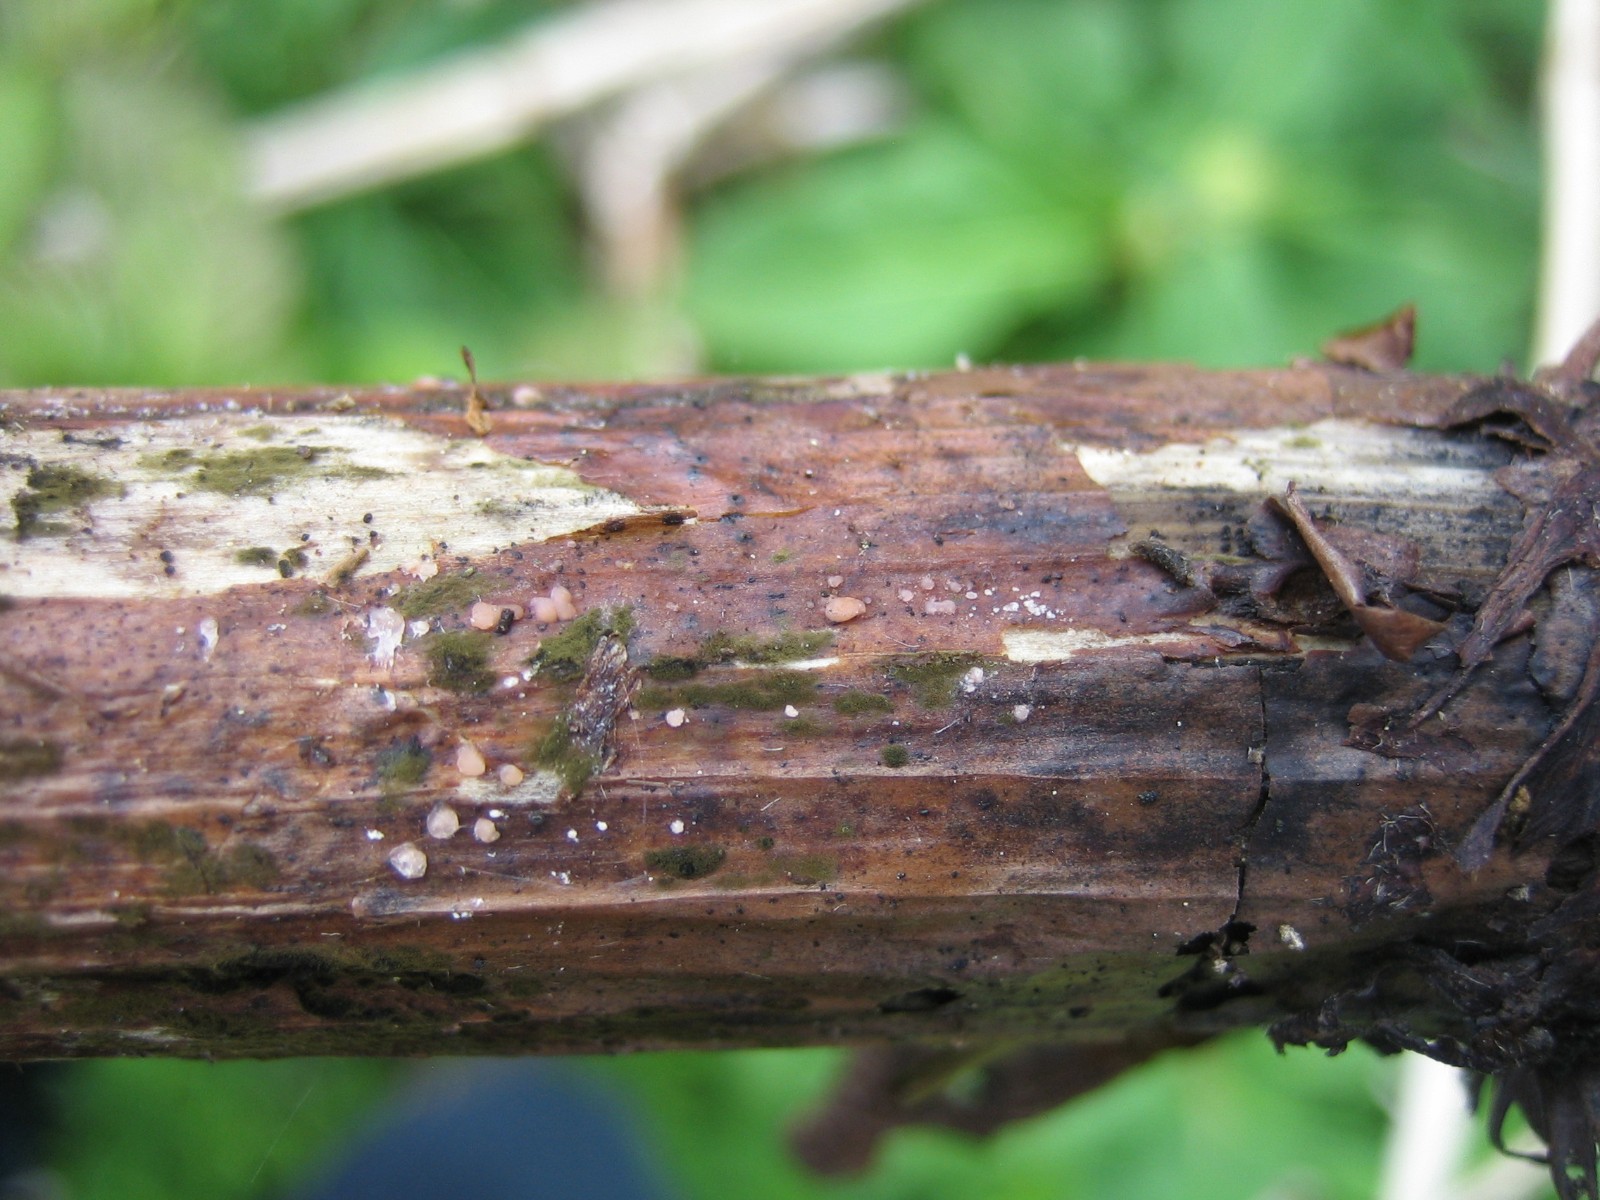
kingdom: Fungi
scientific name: Fungi
